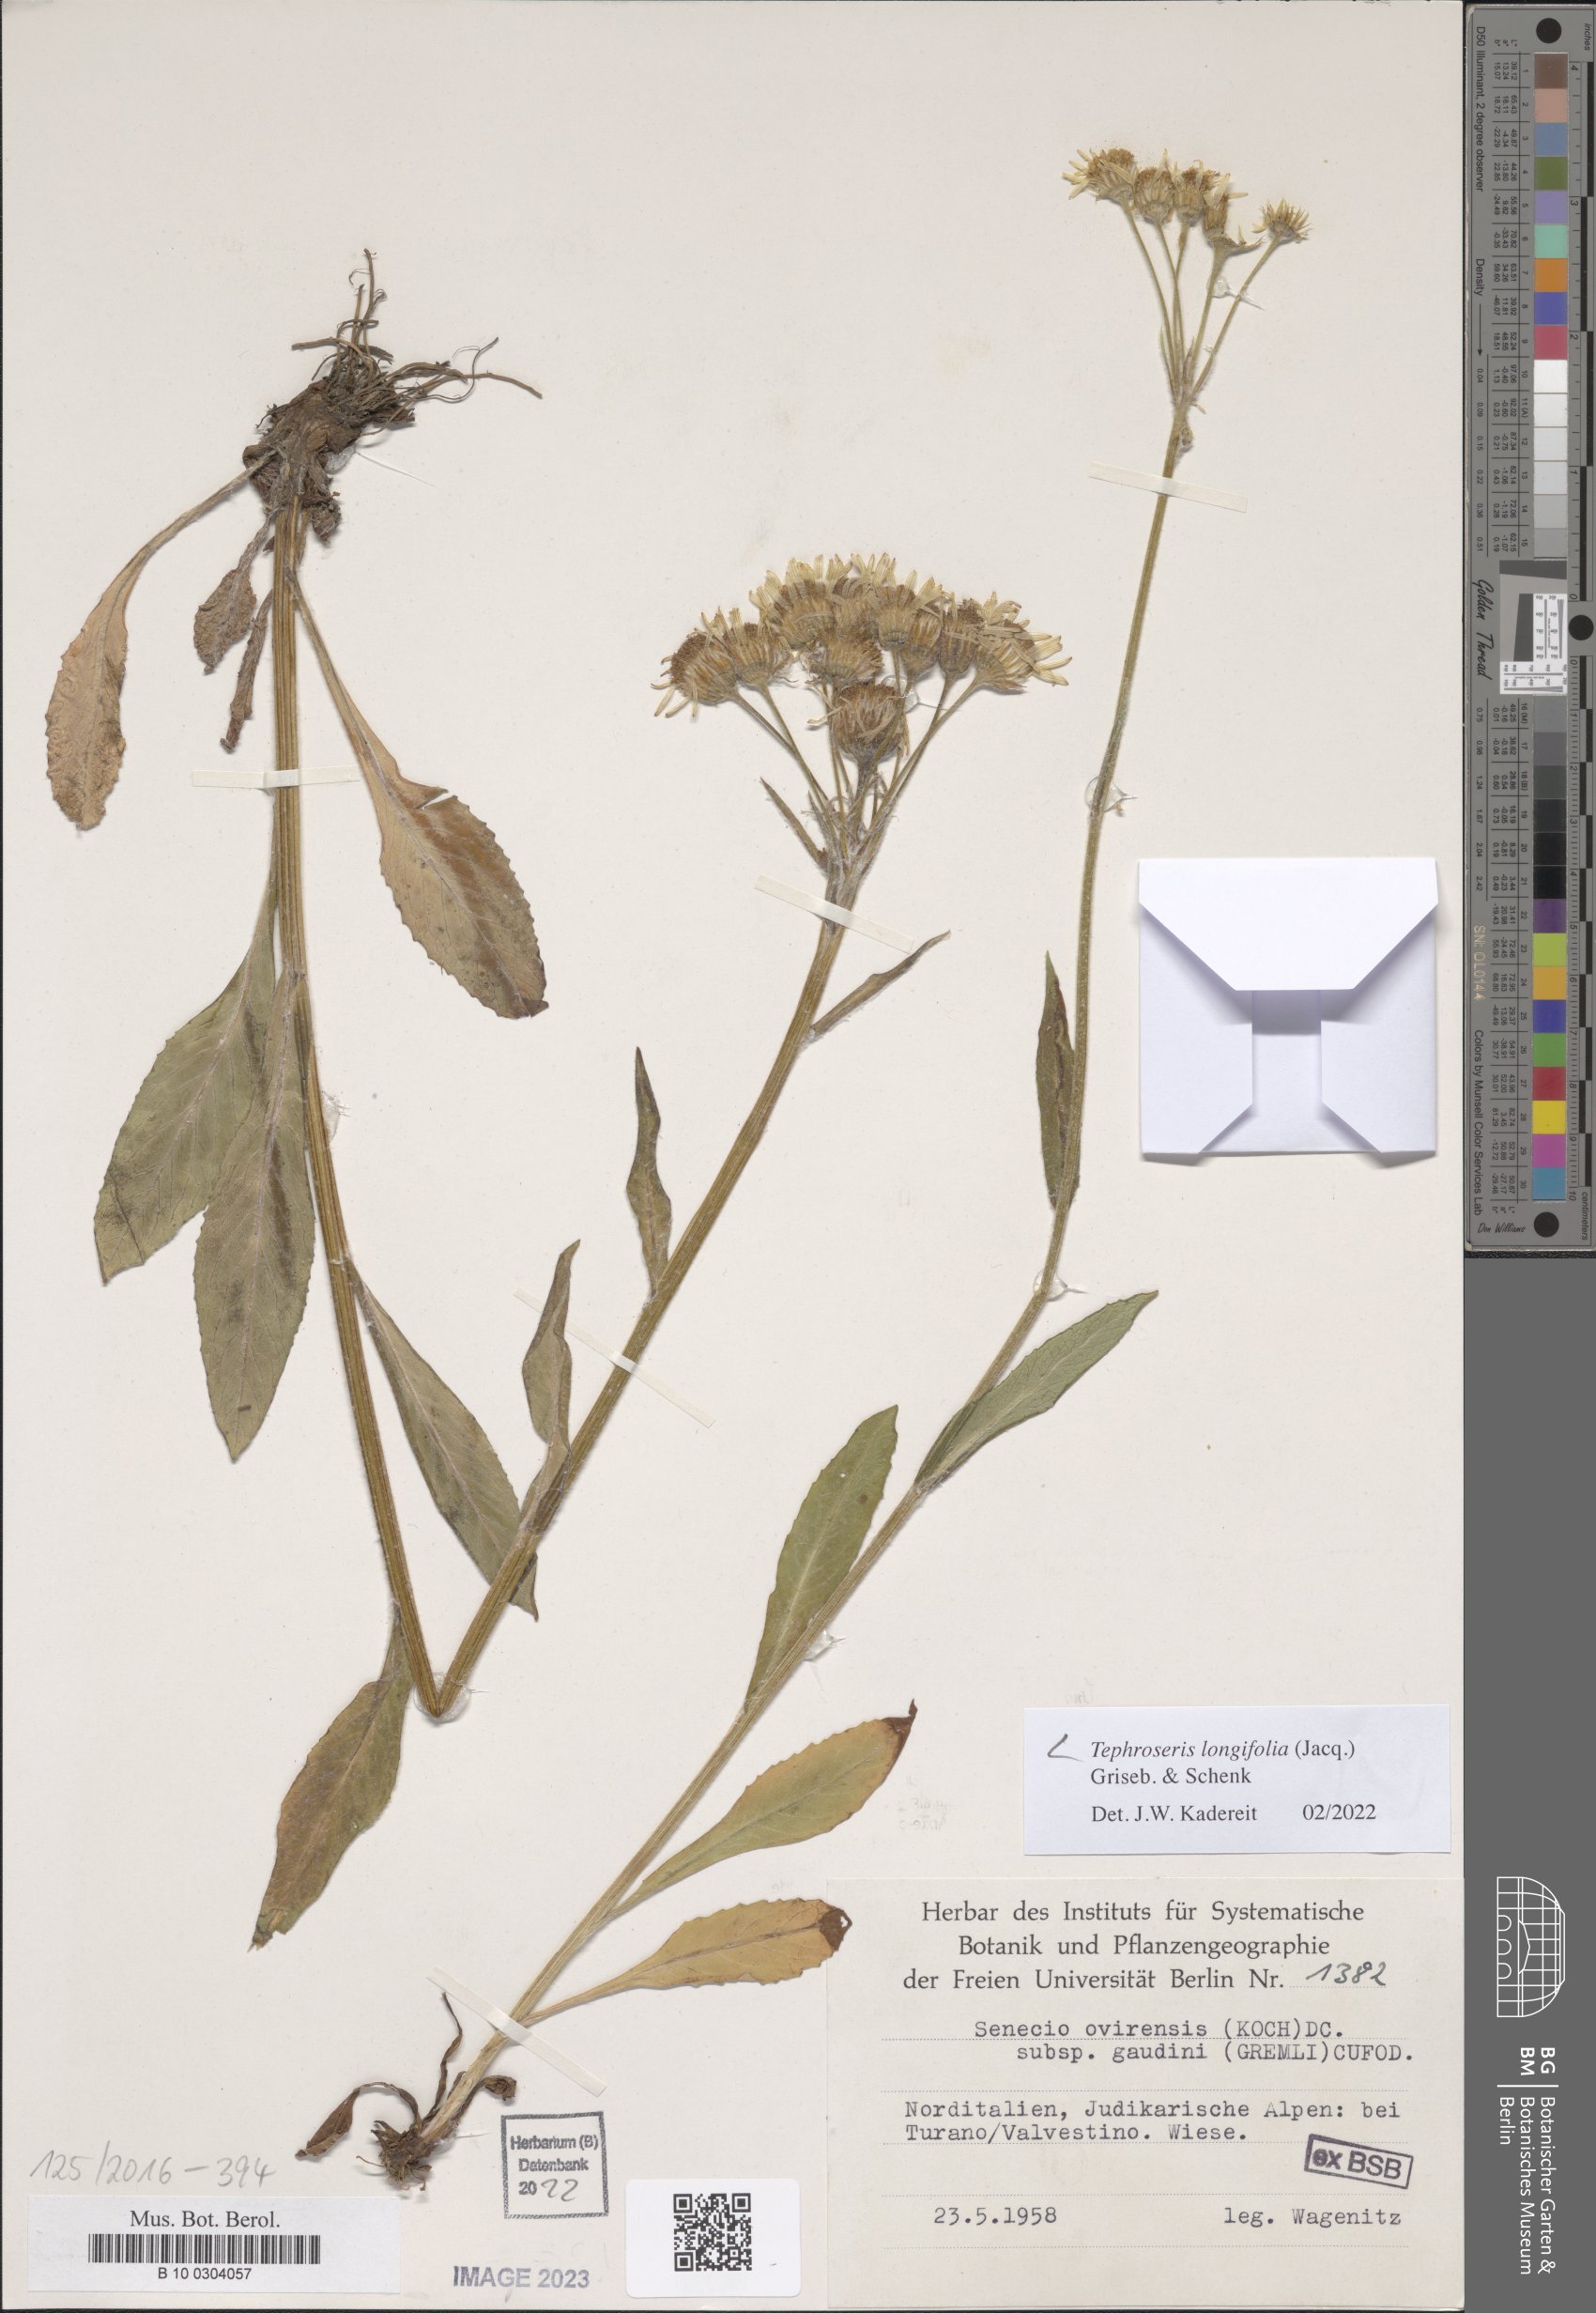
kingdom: Plantae
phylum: Tracheophyta
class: Magnoliopsida
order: Asterales
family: Asteraceae
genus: Tephroseris
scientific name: Tephroseris longifolia
